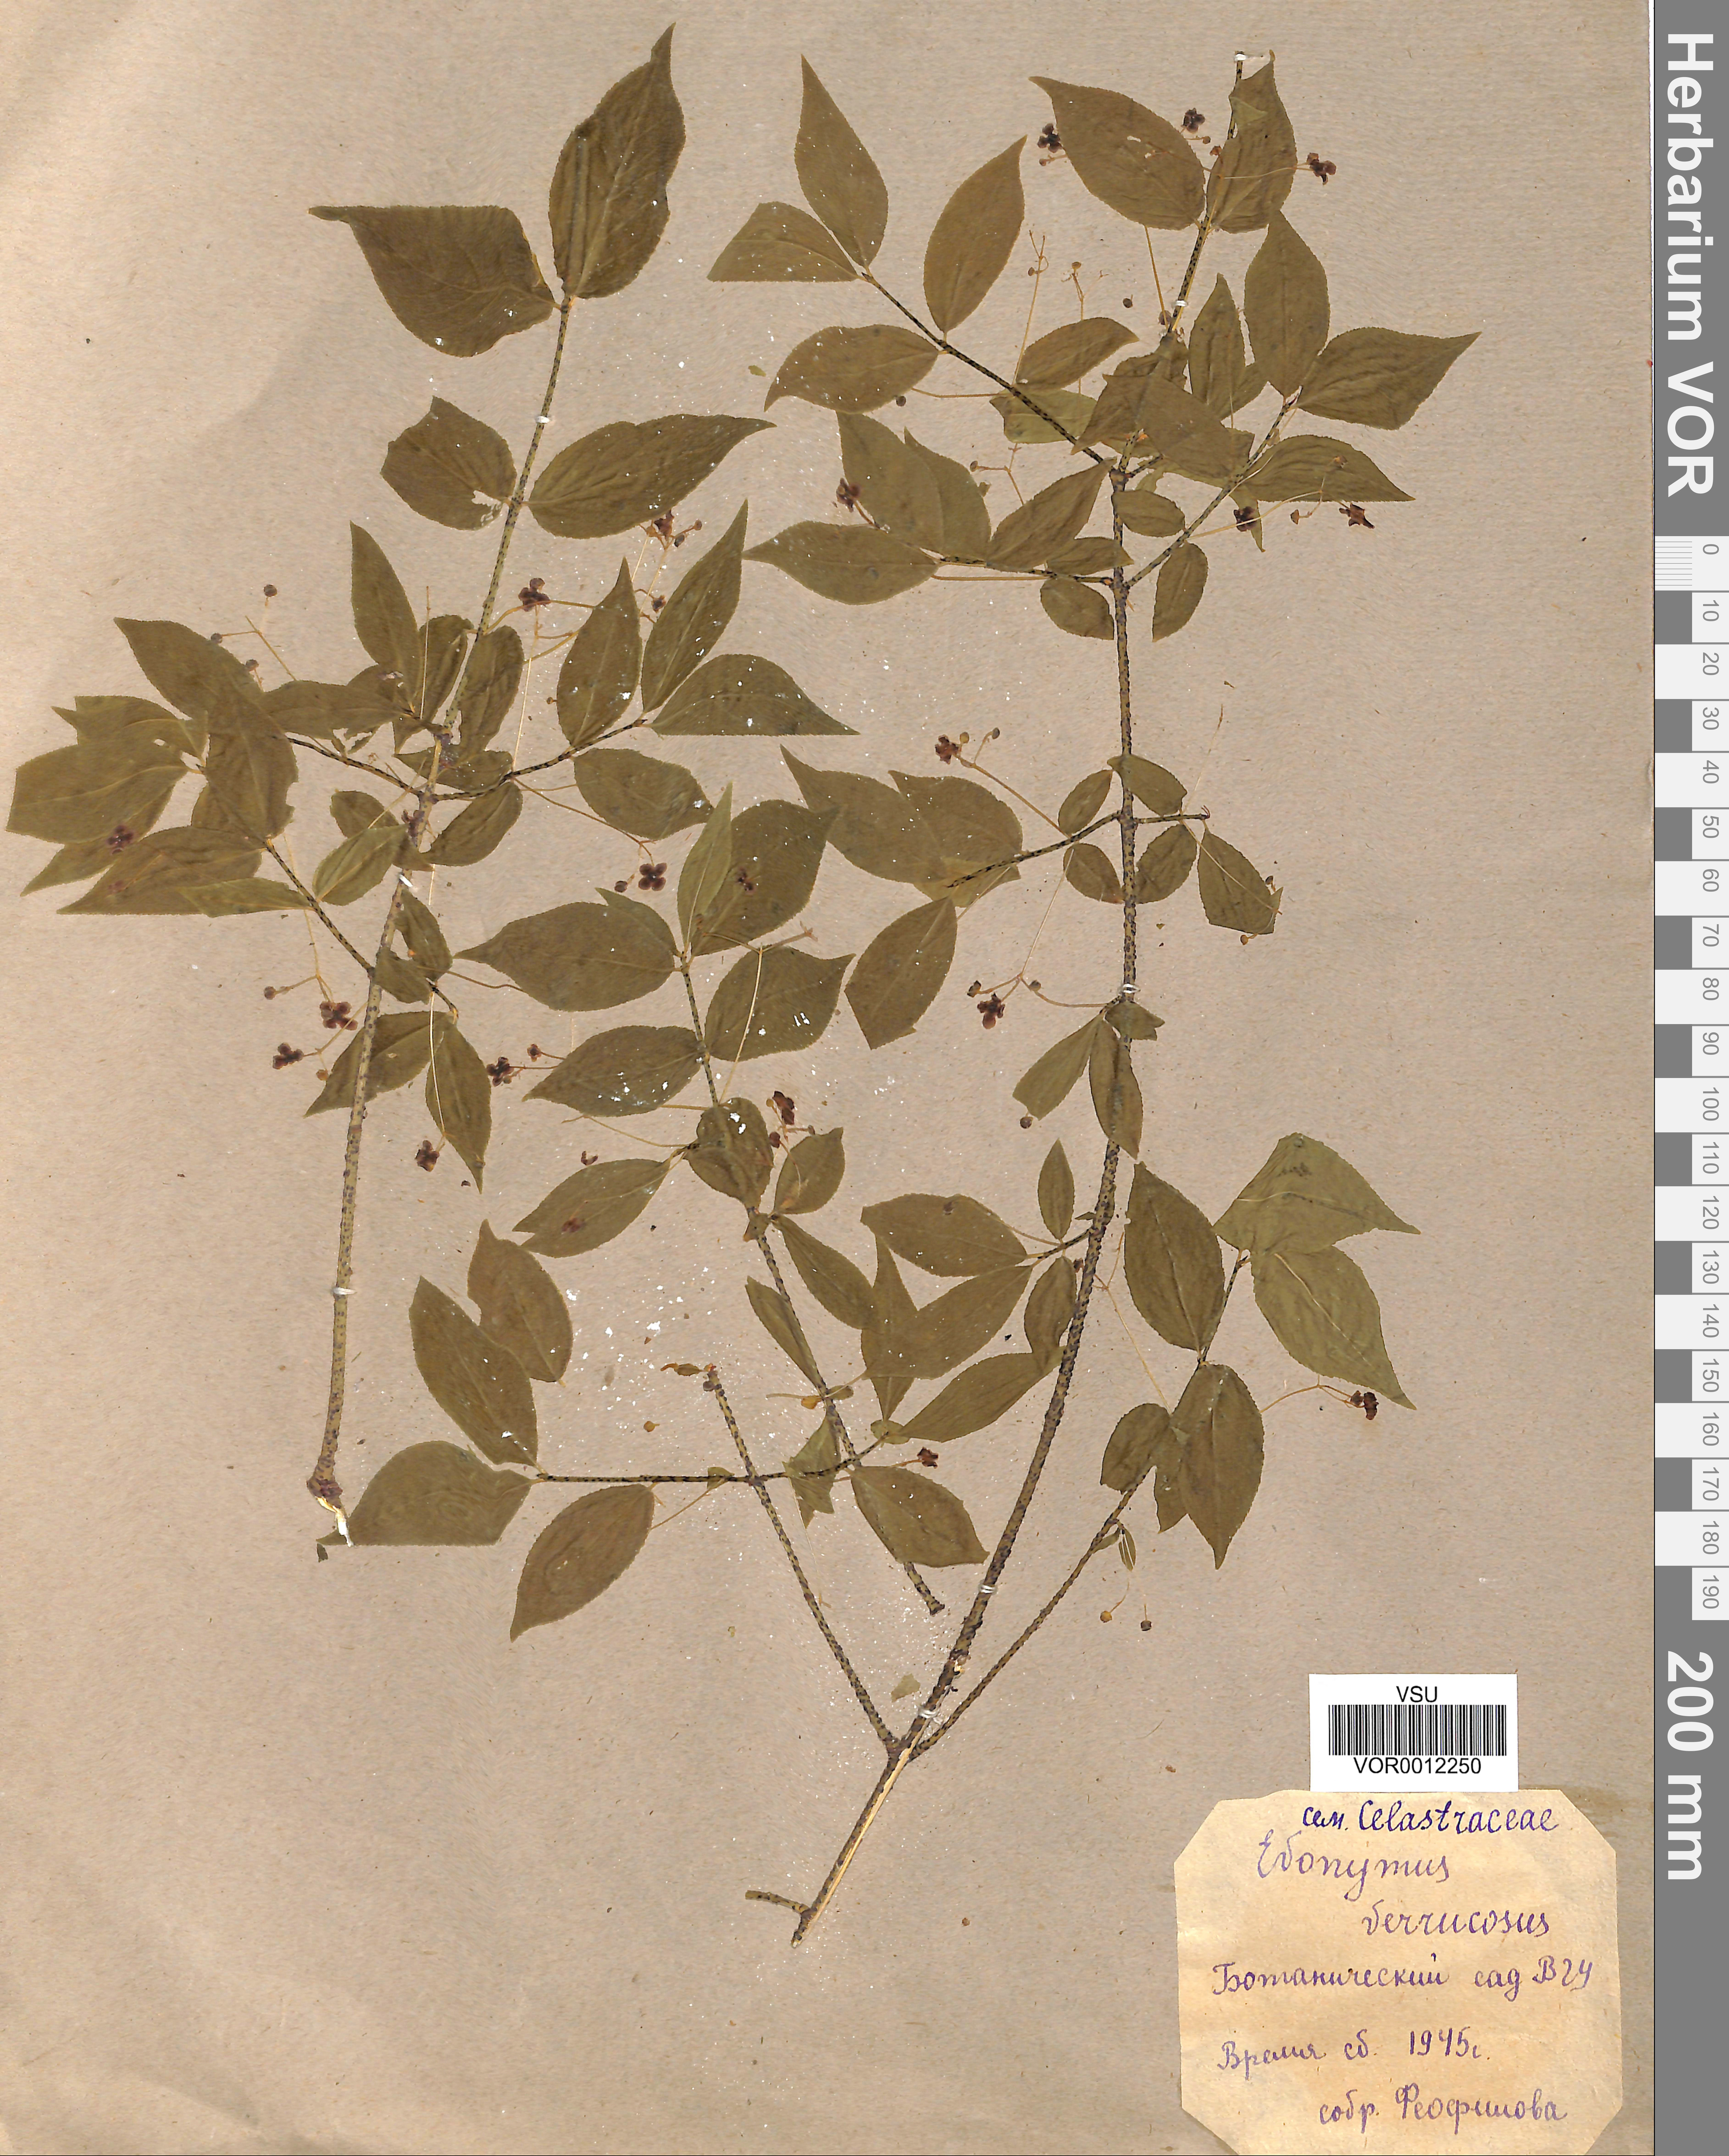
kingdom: Plantae
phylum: Tracheophyta
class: Magnoliopsida
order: Celastrales
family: Celastraceae
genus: Euonymus
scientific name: Euonymus verrucosus
